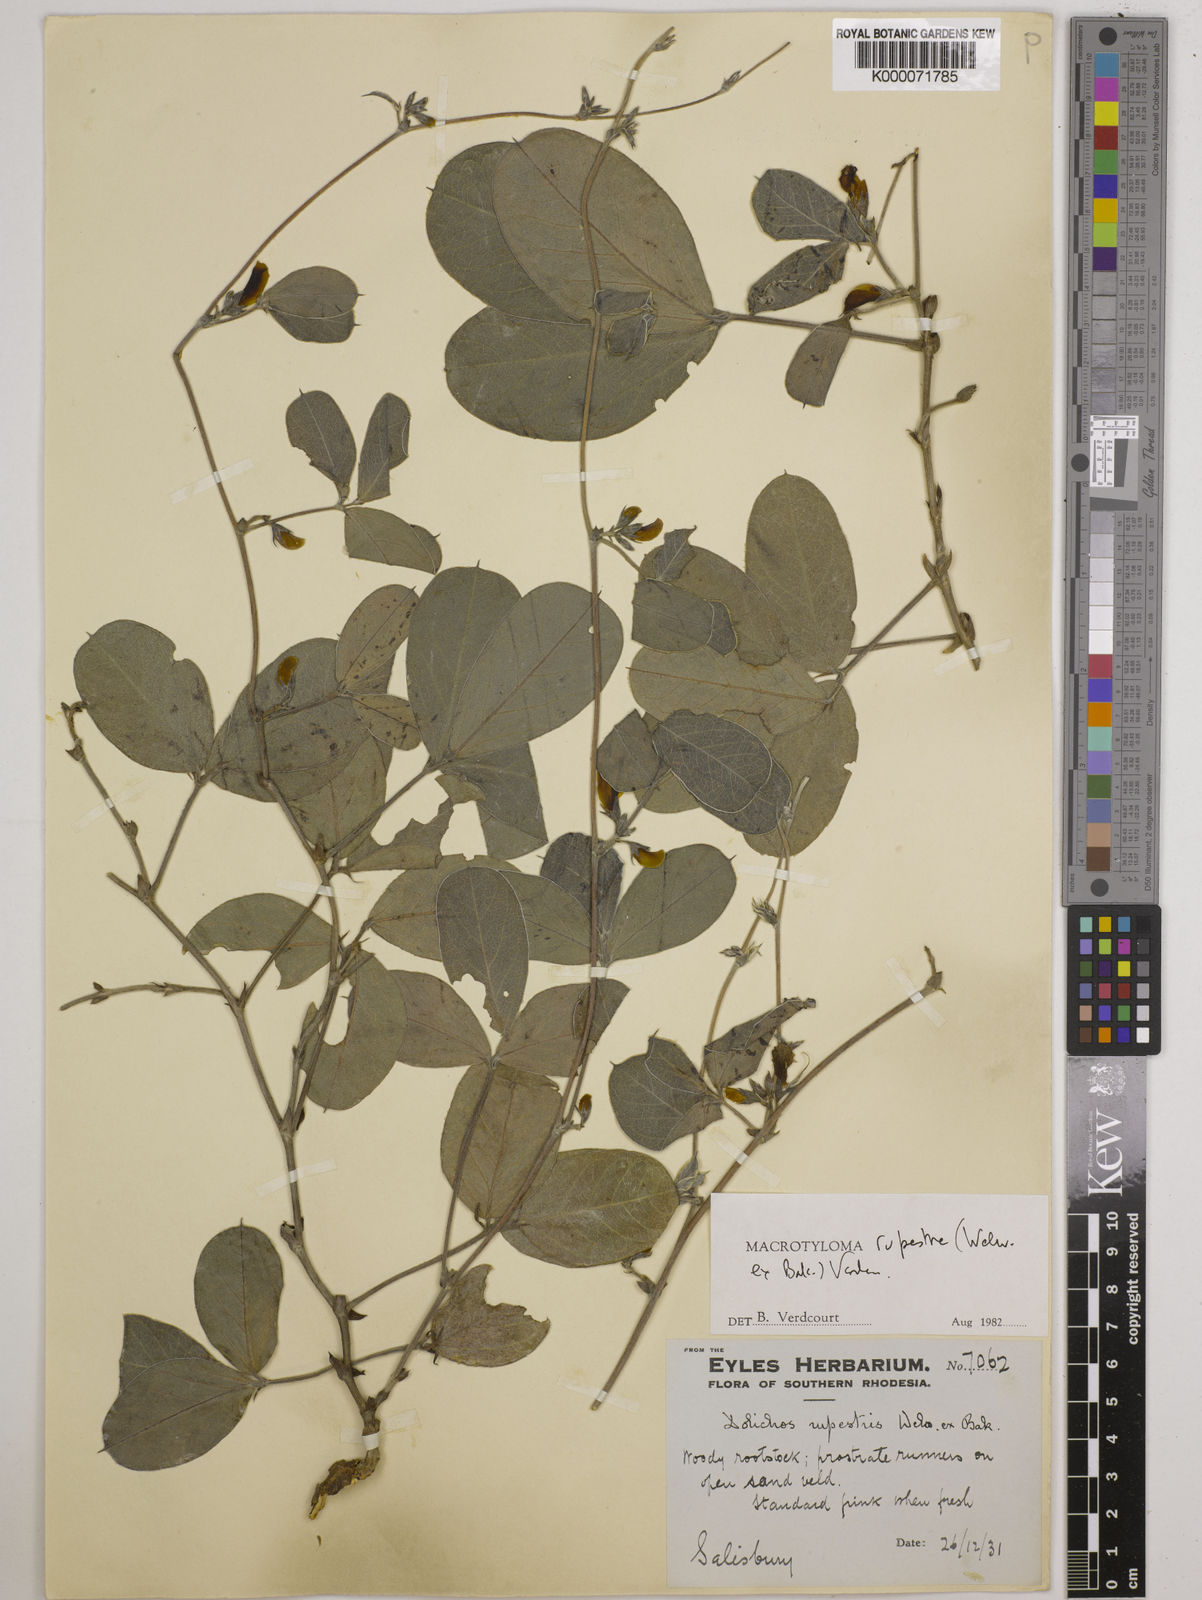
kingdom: Plantae
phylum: Tracheophyta
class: Magnoliopsida
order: Fabales
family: Fabaceae
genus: Macrotyloma
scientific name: Macrotyloma rupestre
